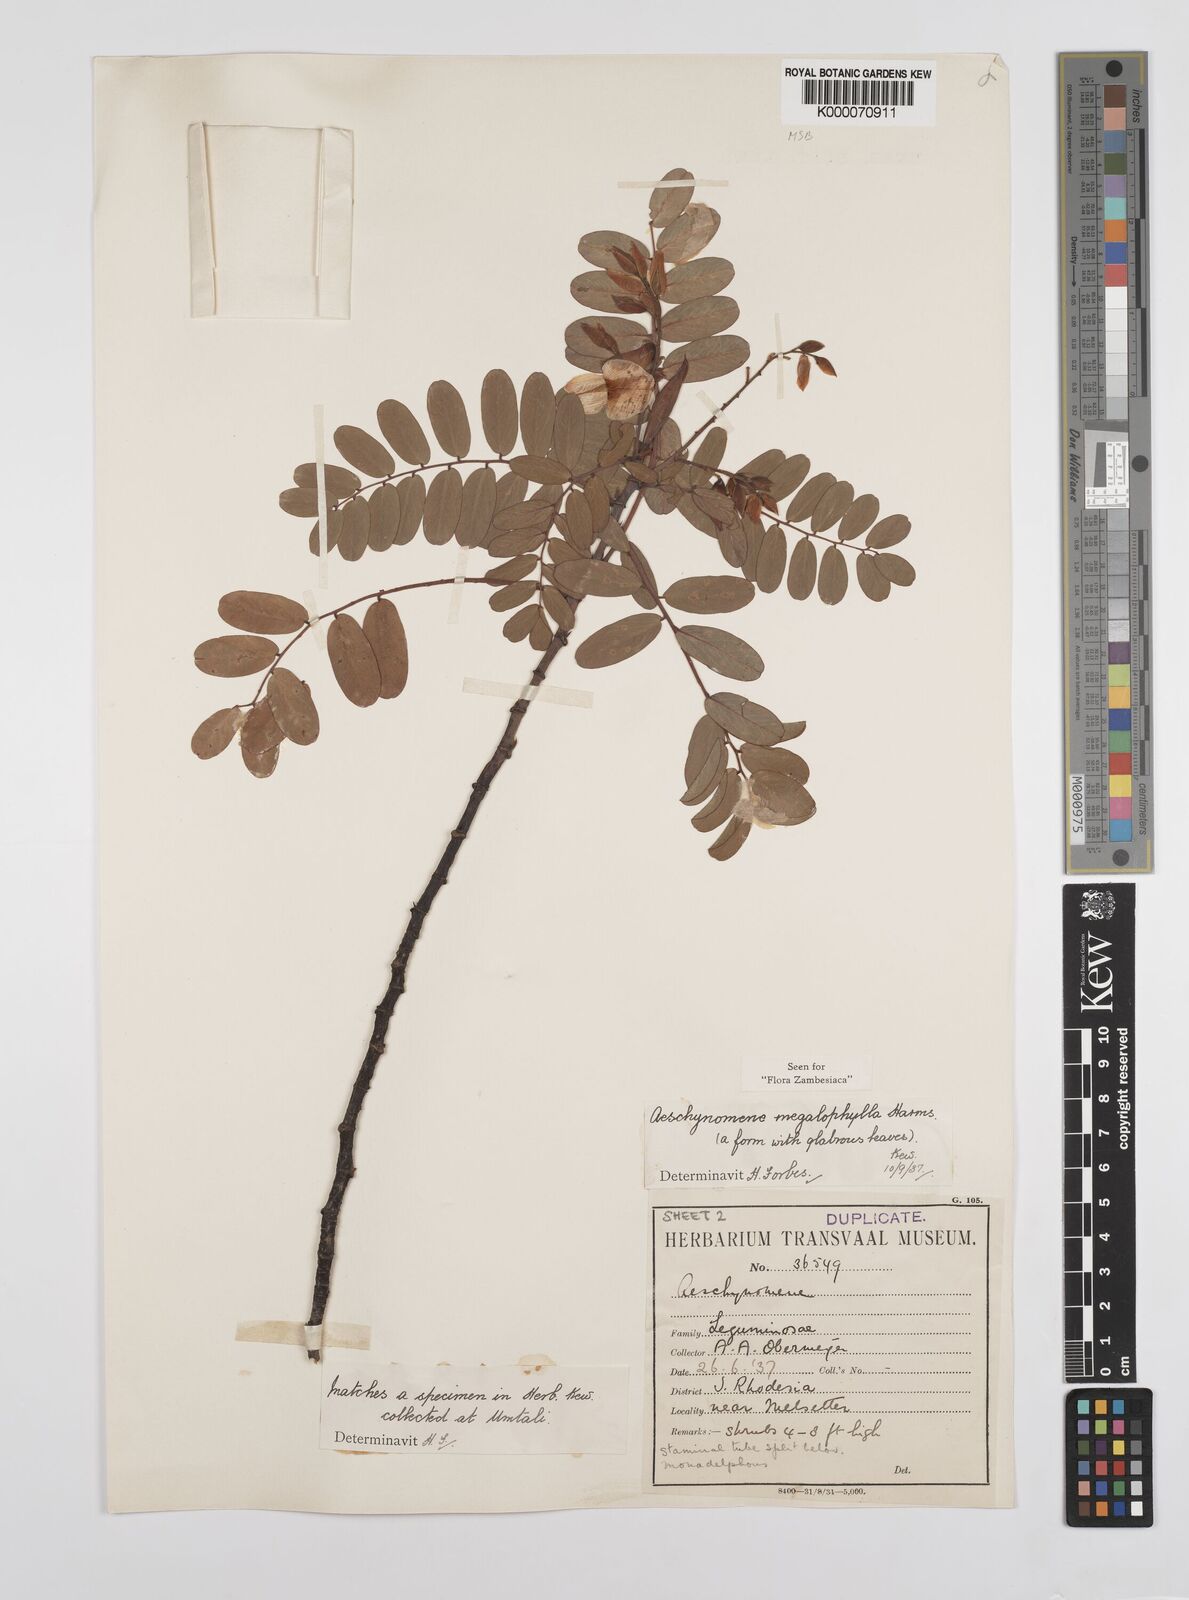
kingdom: Plantae
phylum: Tracheophyta
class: Magnoliopsida
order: Fabales
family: Fabaceae
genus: Aeschynomene
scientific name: Aeschynomene megalophylla
